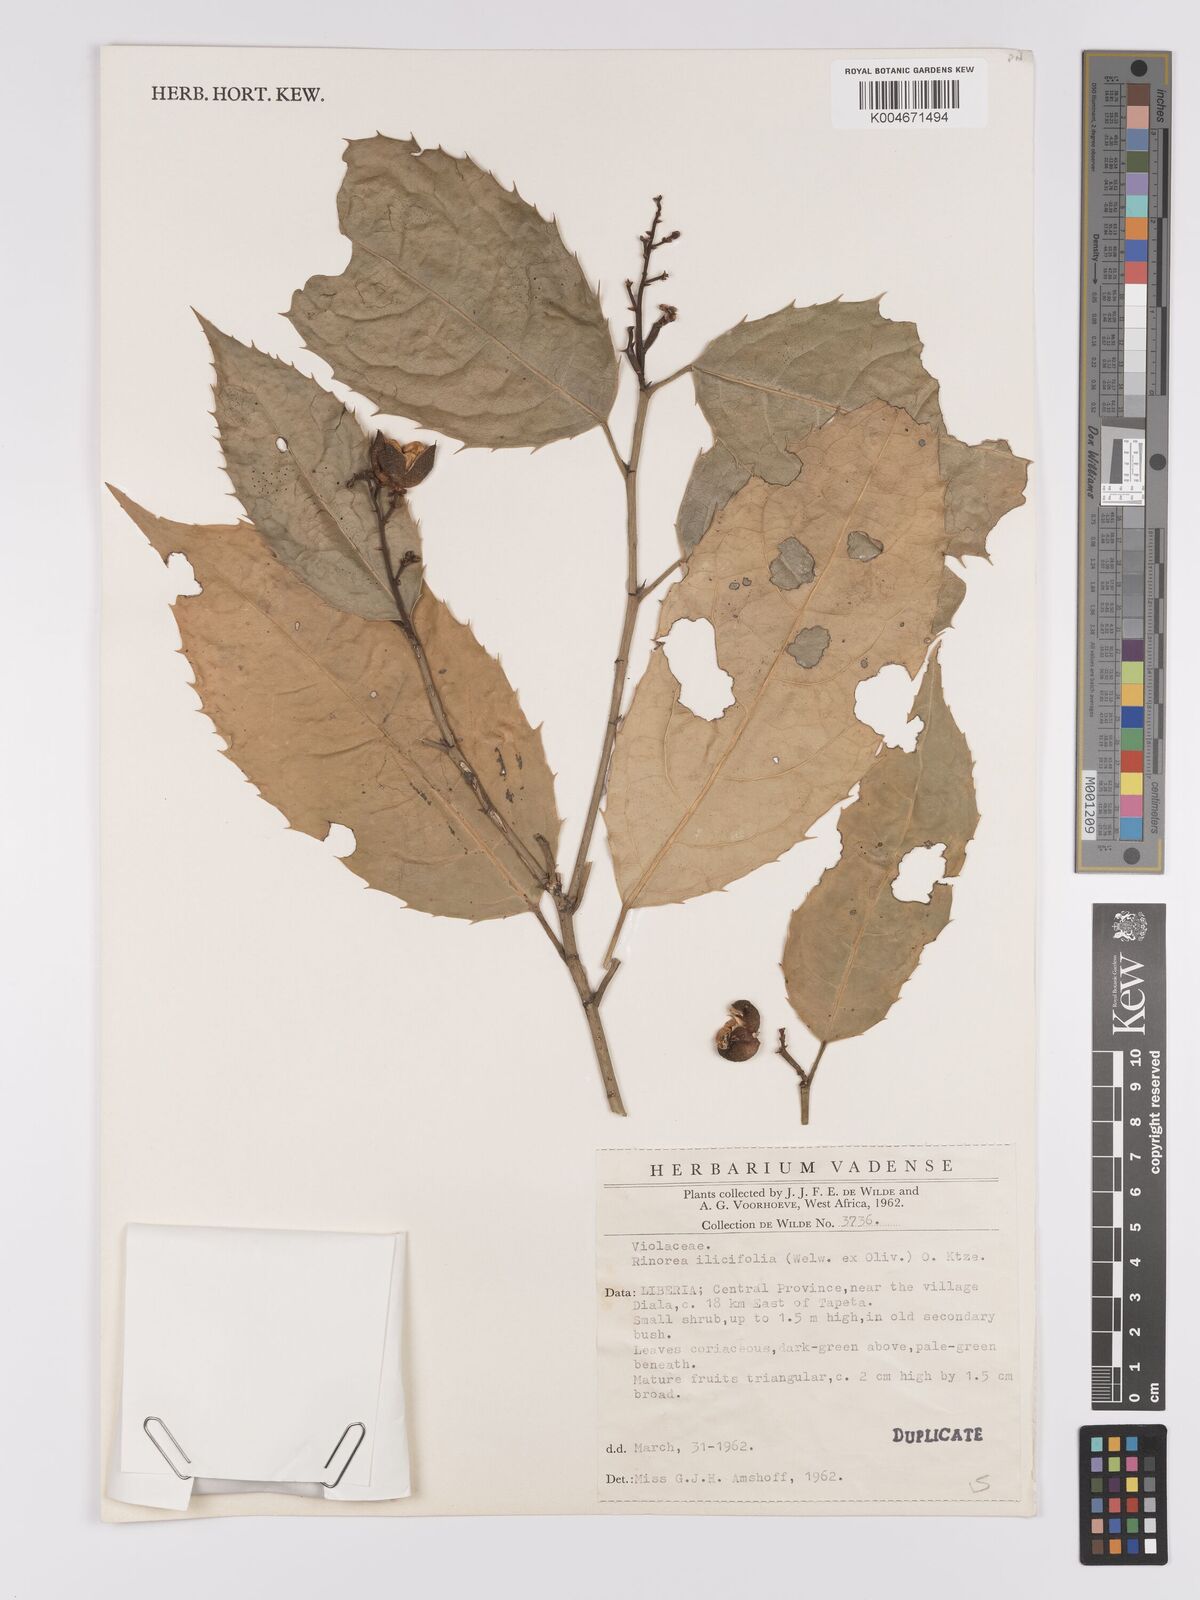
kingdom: Plantae
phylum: Tracheophyta
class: Magnoliopsida
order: Malpighiales
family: Violaceae
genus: Rinorea
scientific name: Rinorea ilicifolia
